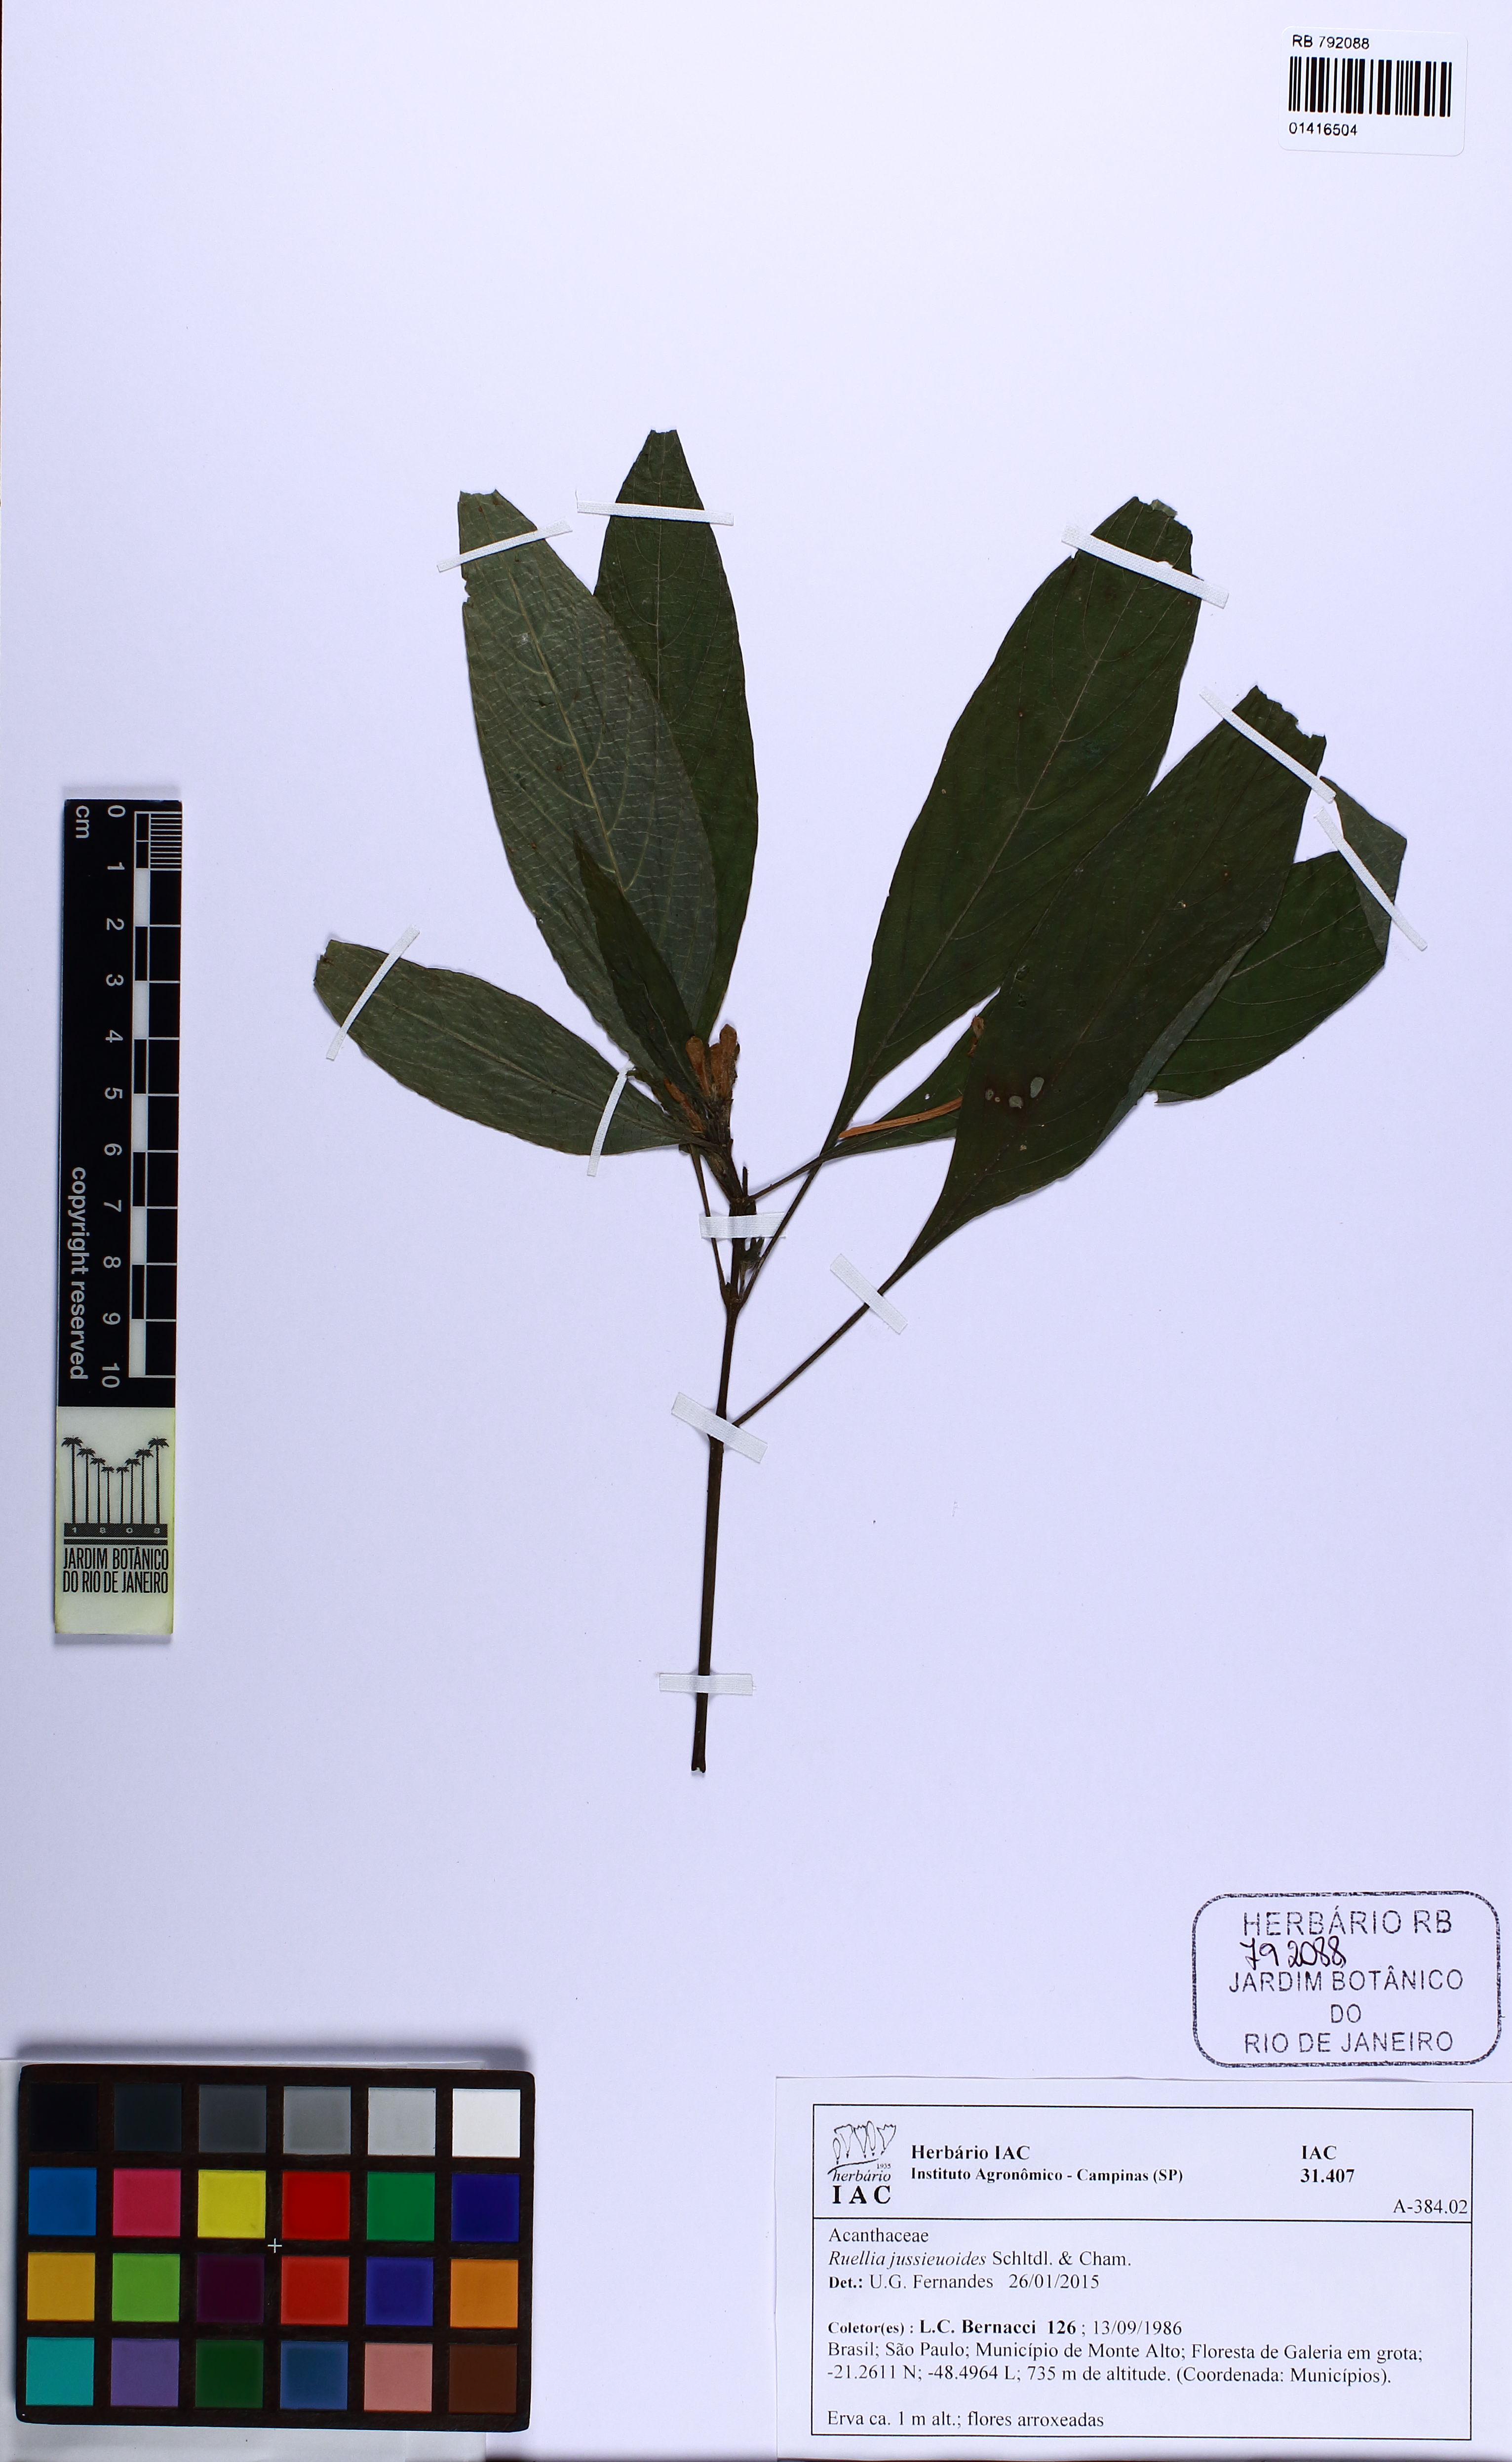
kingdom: Plantae
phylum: Tracheophyta
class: Magnoliopsida
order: Lamiales
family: Acanthaceae
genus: Ruellia
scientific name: Ruellia jussieuoides
